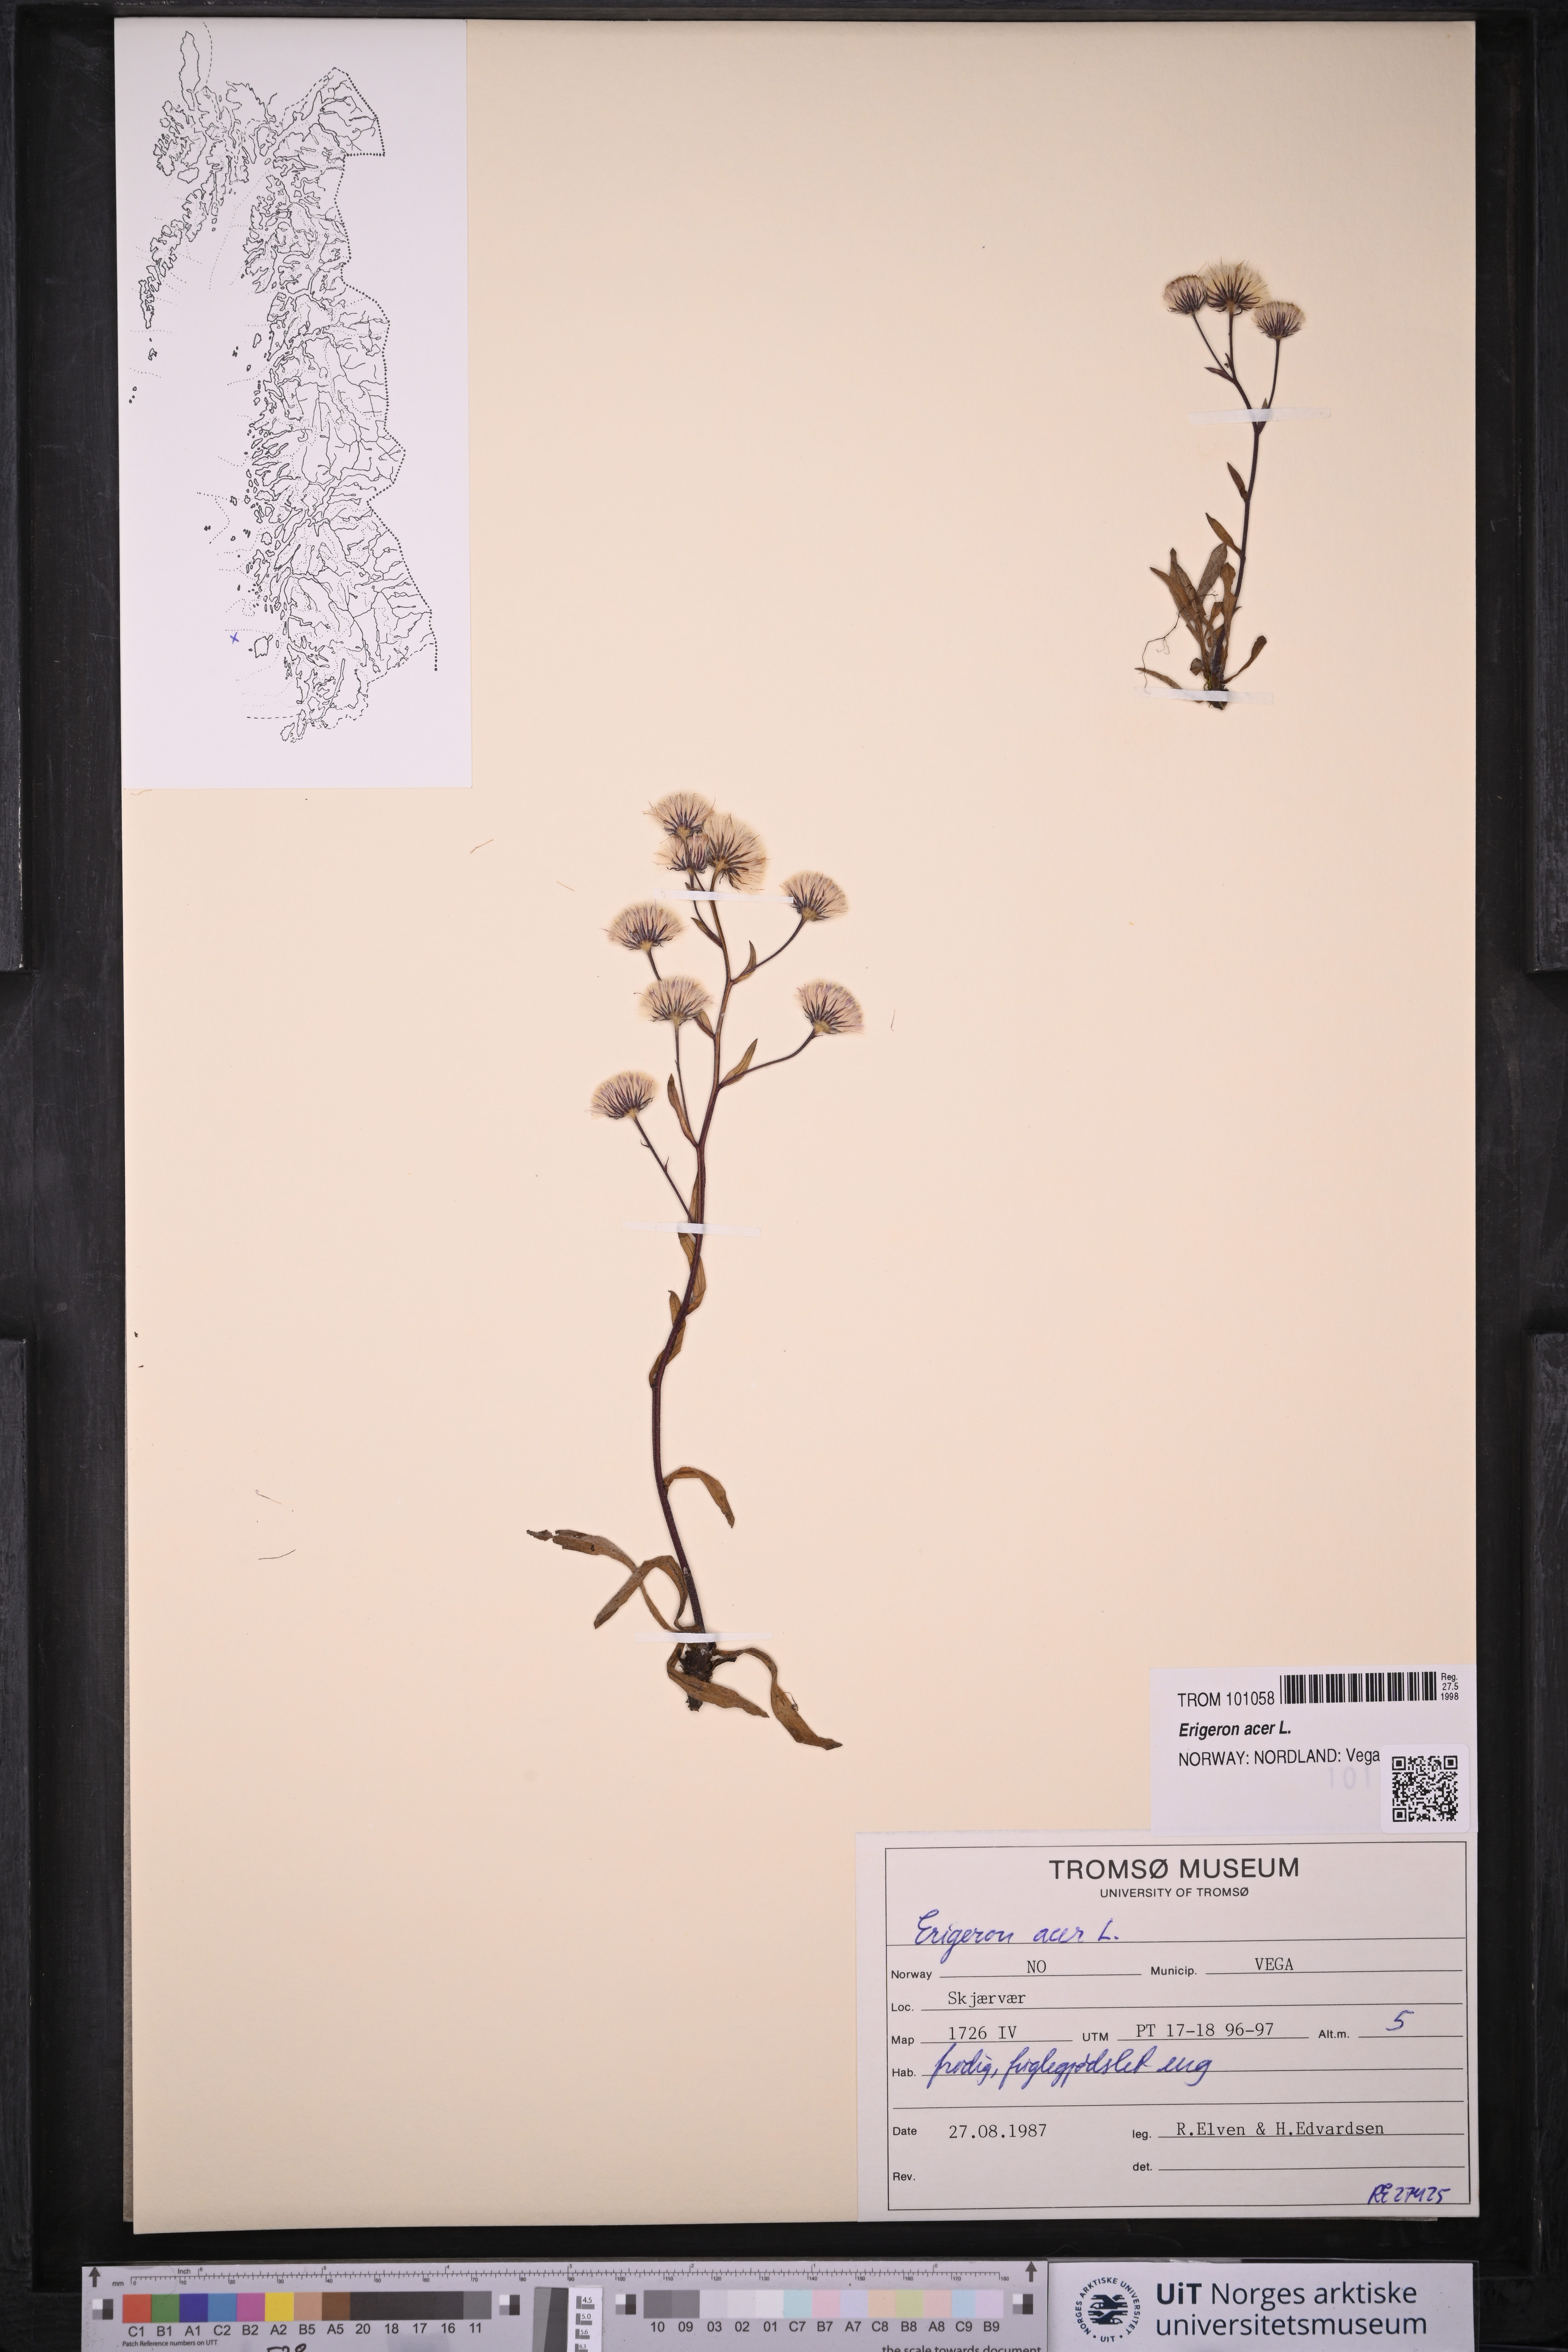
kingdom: Plantae
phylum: Tracheophyta
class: Magnoliopsida
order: Asterales
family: Asteraceae
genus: Erigeron
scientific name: Erigeron acris
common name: Blue fleabane
